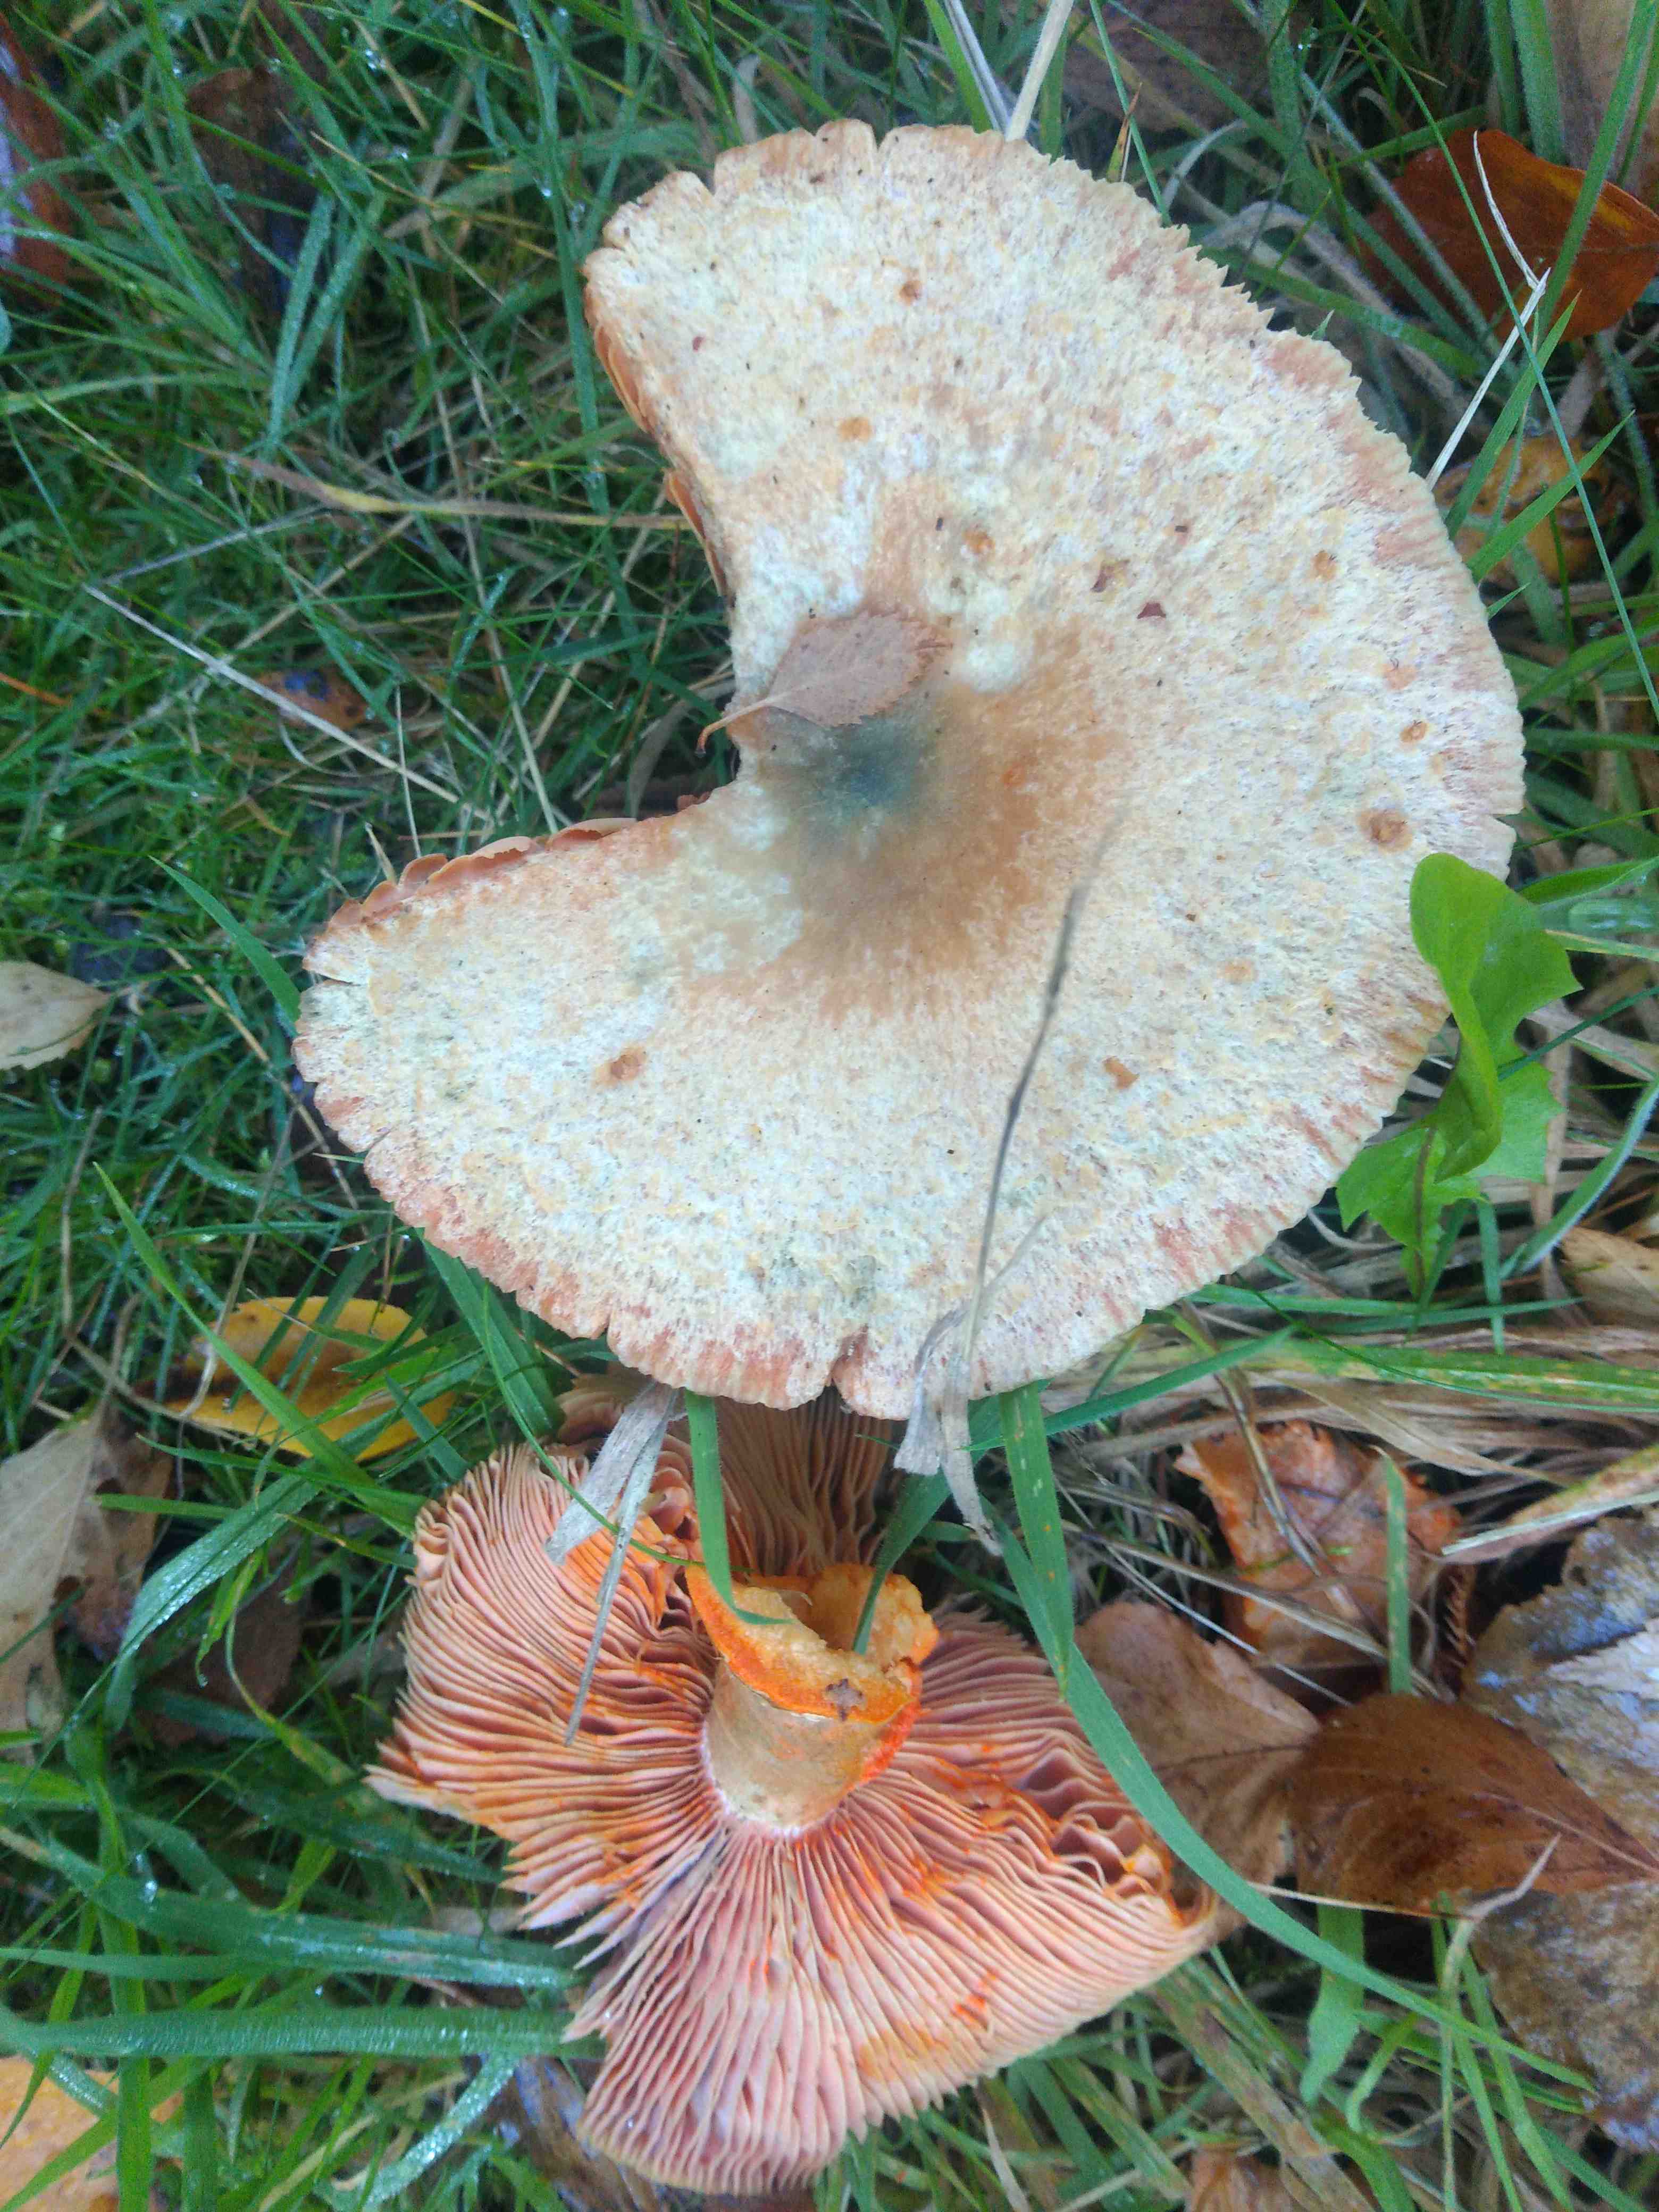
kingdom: Fungi
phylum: Basidiomycota
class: Agaricomycetes
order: Russulales
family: Russulaceae
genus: Lactarius
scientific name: Lactarius deterrimus
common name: gran-mælkehat
